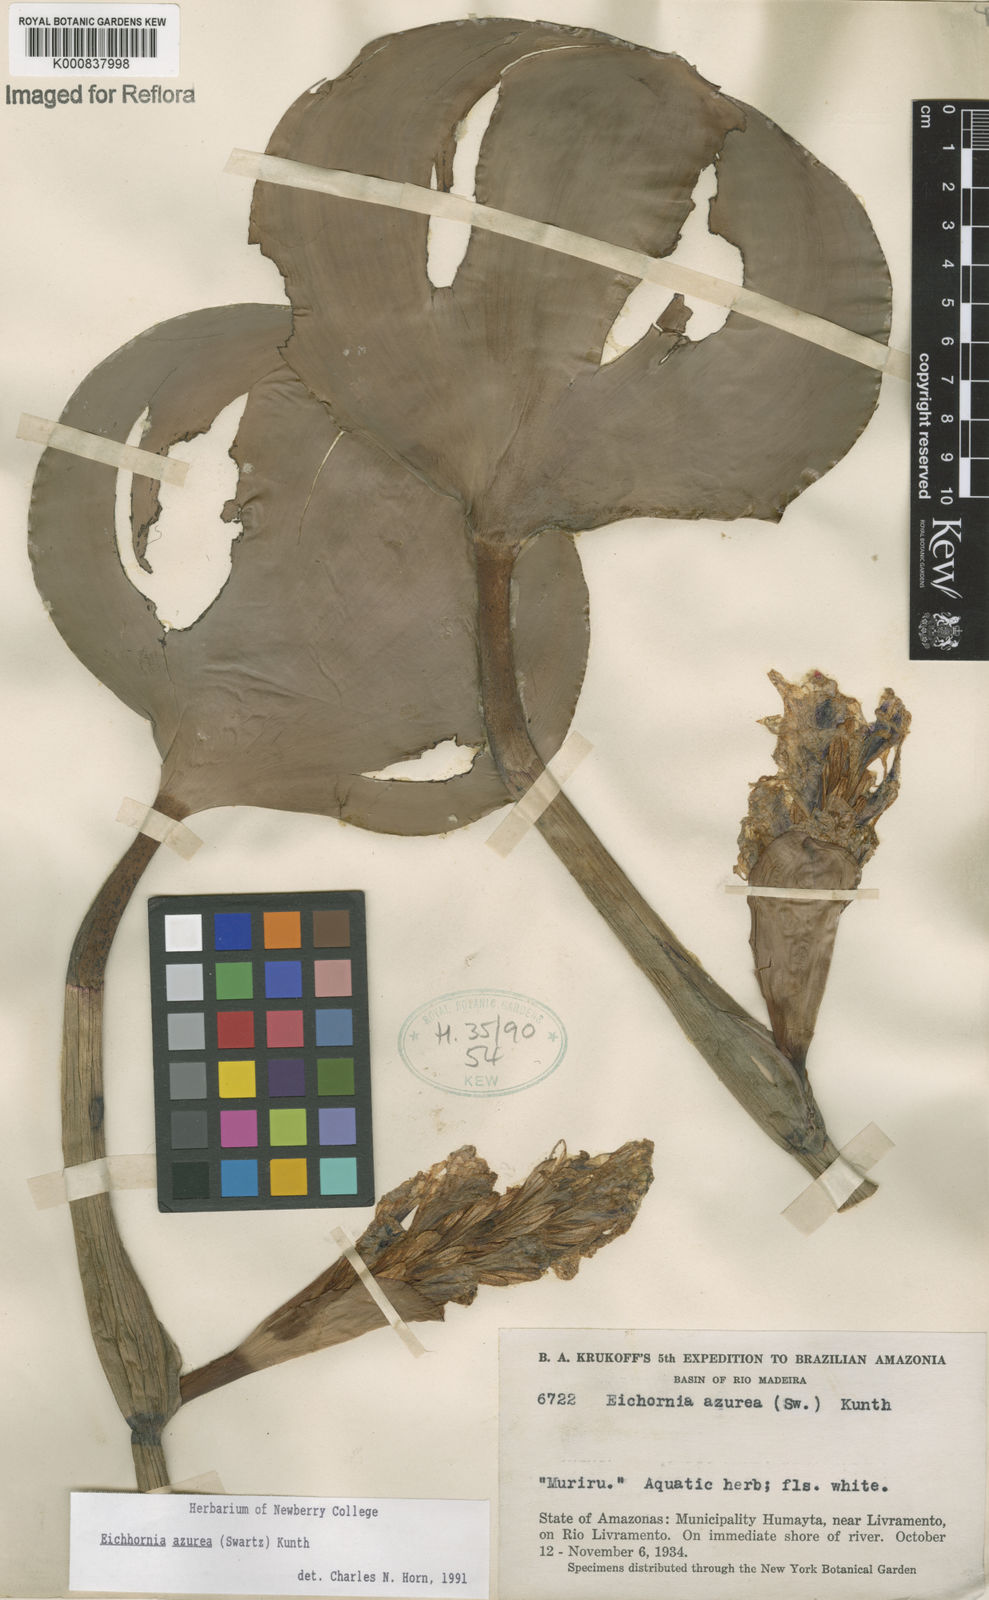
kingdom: Plantae
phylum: Tracheophyta
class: Liliopsida
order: Commelinales
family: Pontederiaceae
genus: Pontederia
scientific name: Pontederia azurea
